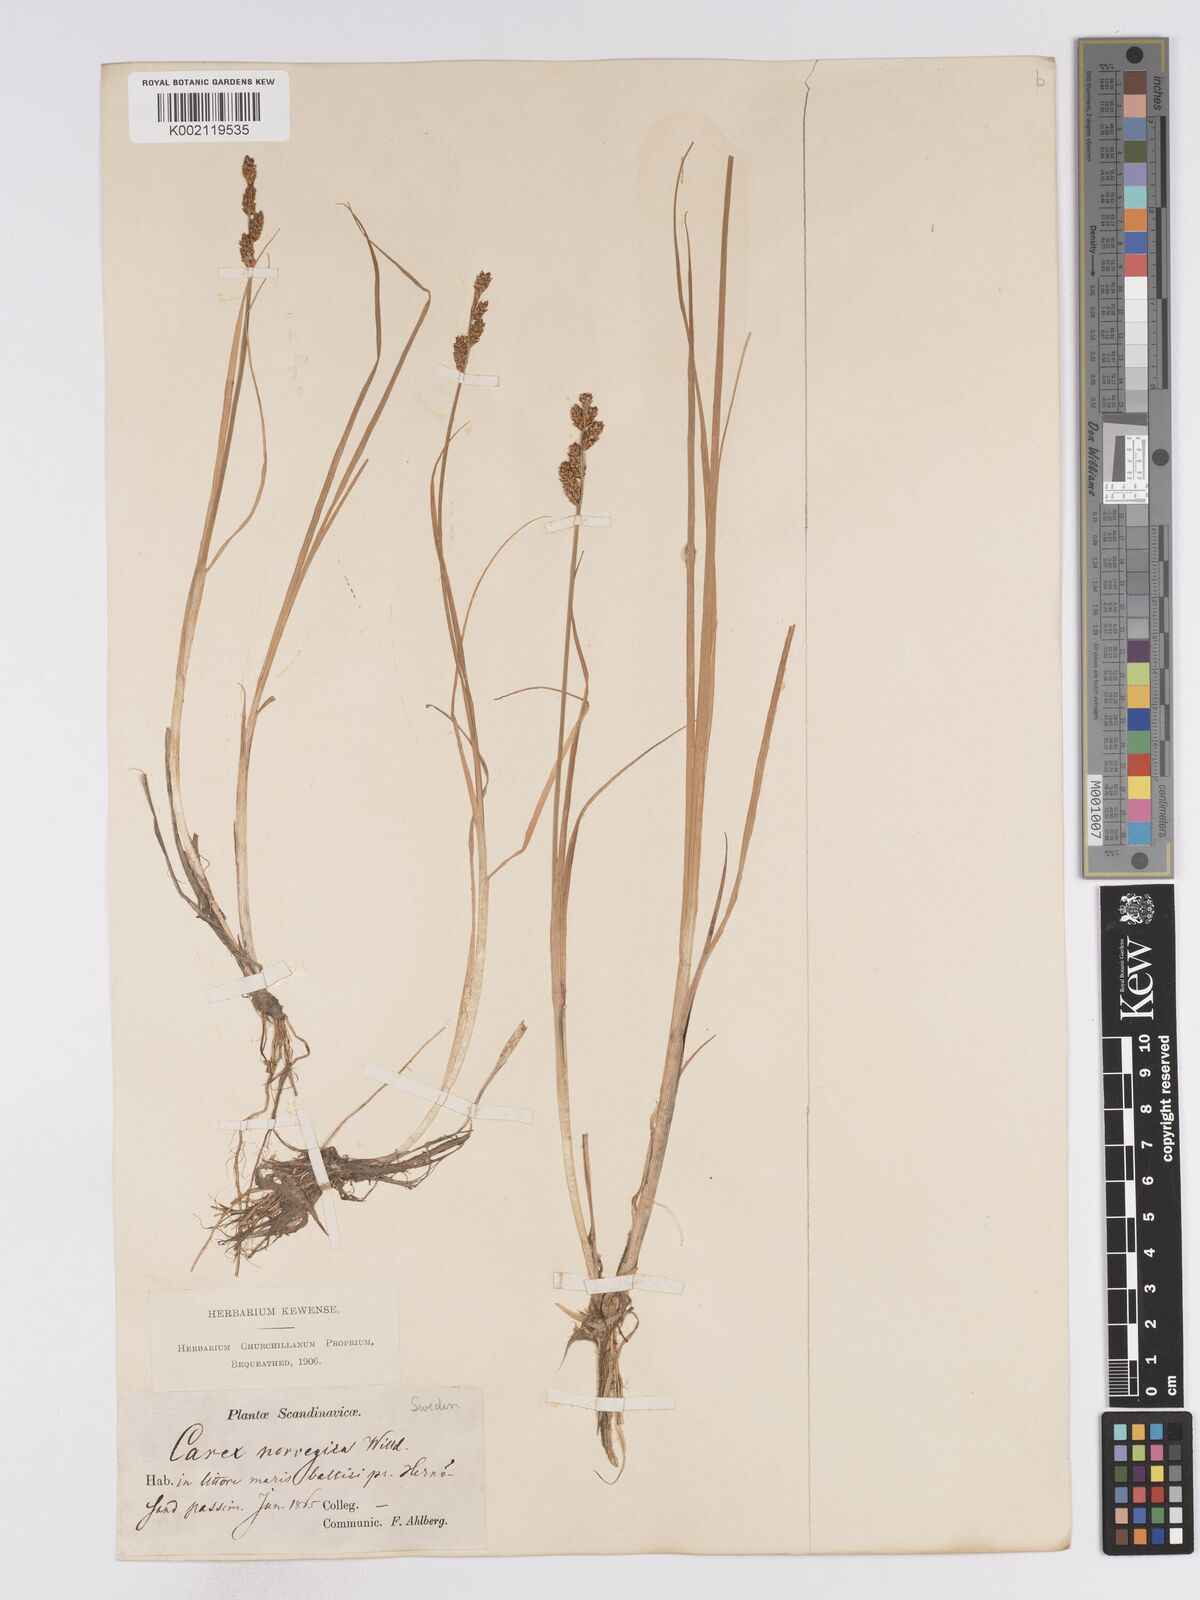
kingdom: Plantae
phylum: Tracheophyta
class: Liliopsida
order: Poales
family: Cyperaceae
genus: Carex
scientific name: Carex mackenziei
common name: Mackenzie's sedge
